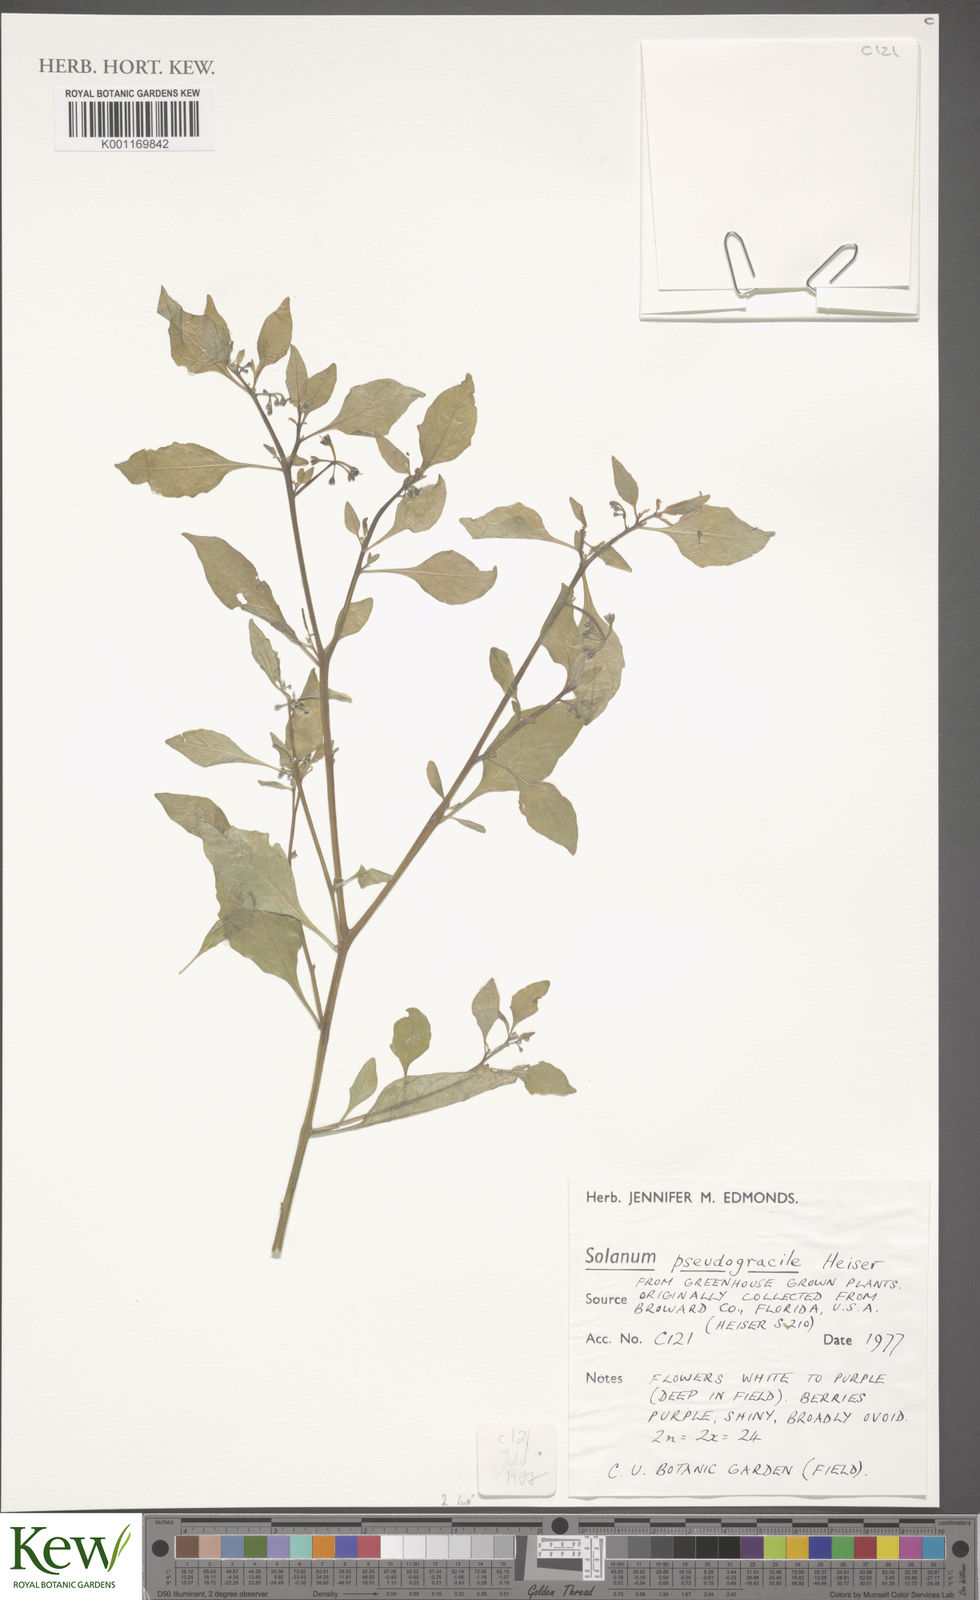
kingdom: Plantae
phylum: Tracheophyta
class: Magnoliopsida
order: Solanales
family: Solanaceae
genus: Solanum
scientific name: Solanum pseudogracile
